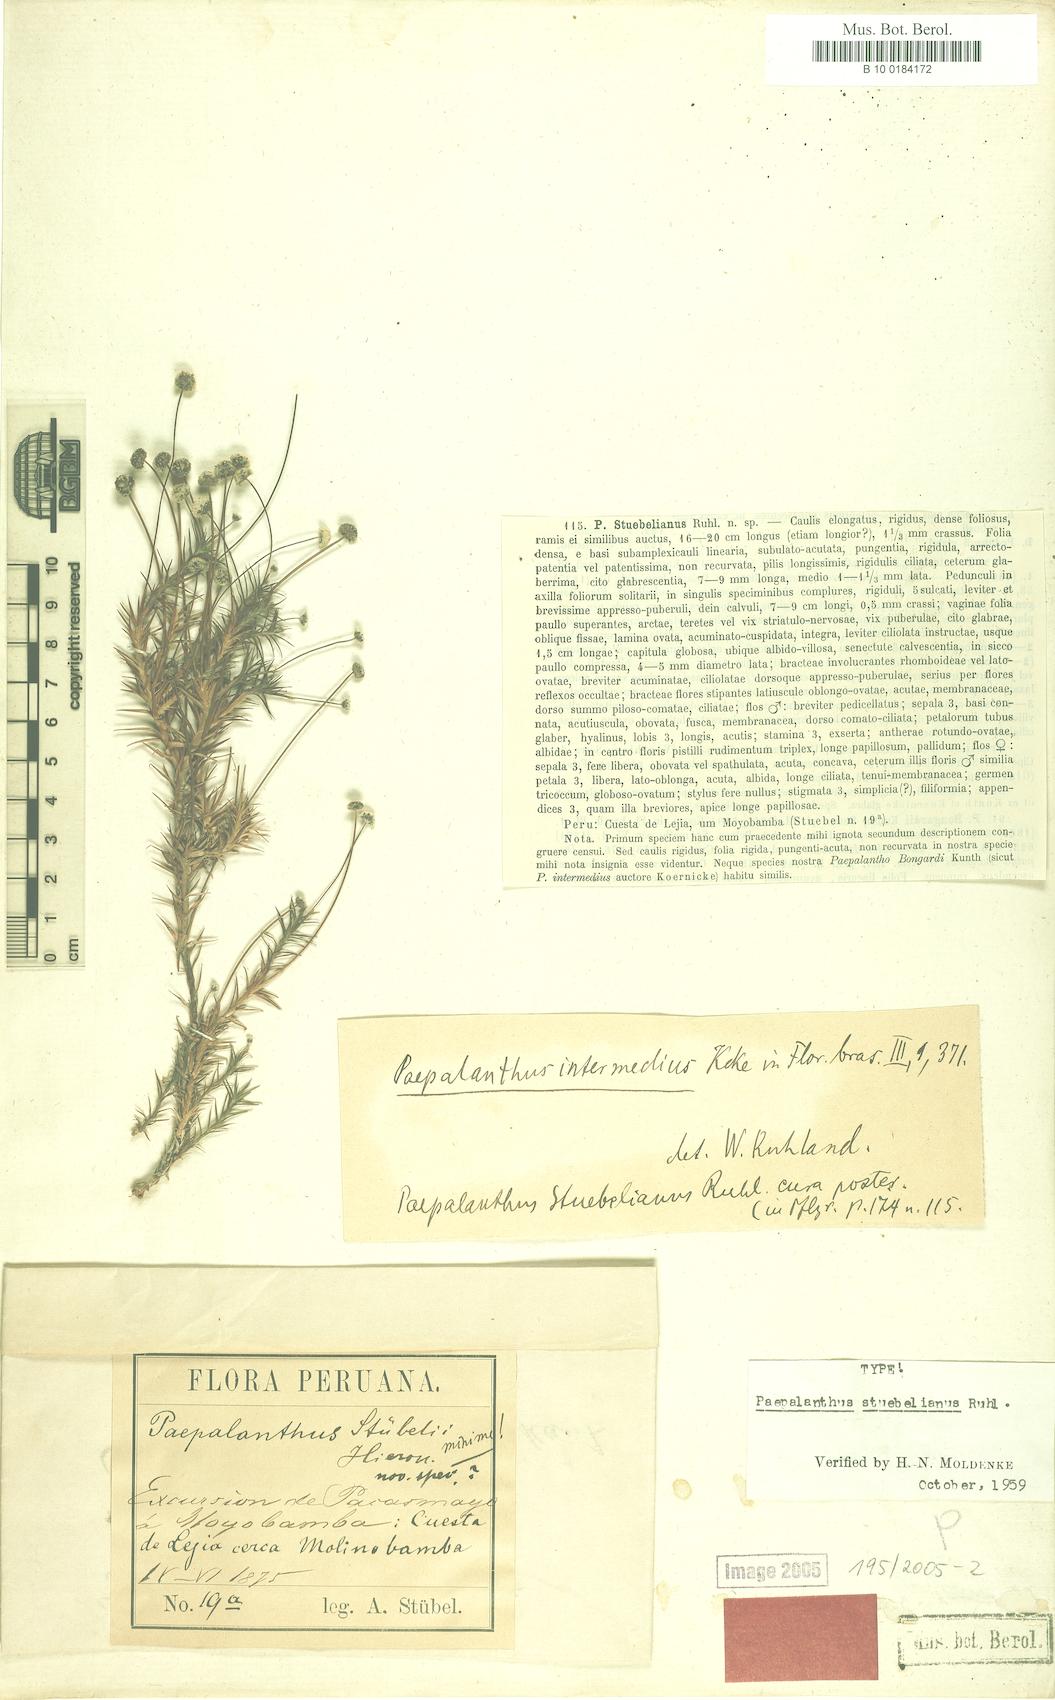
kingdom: Plantae
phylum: Tracheophyta
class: Liliopsida
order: Poales
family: Eriocaulaceae
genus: Paepalanthus
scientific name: Paepalanthus intermedius
